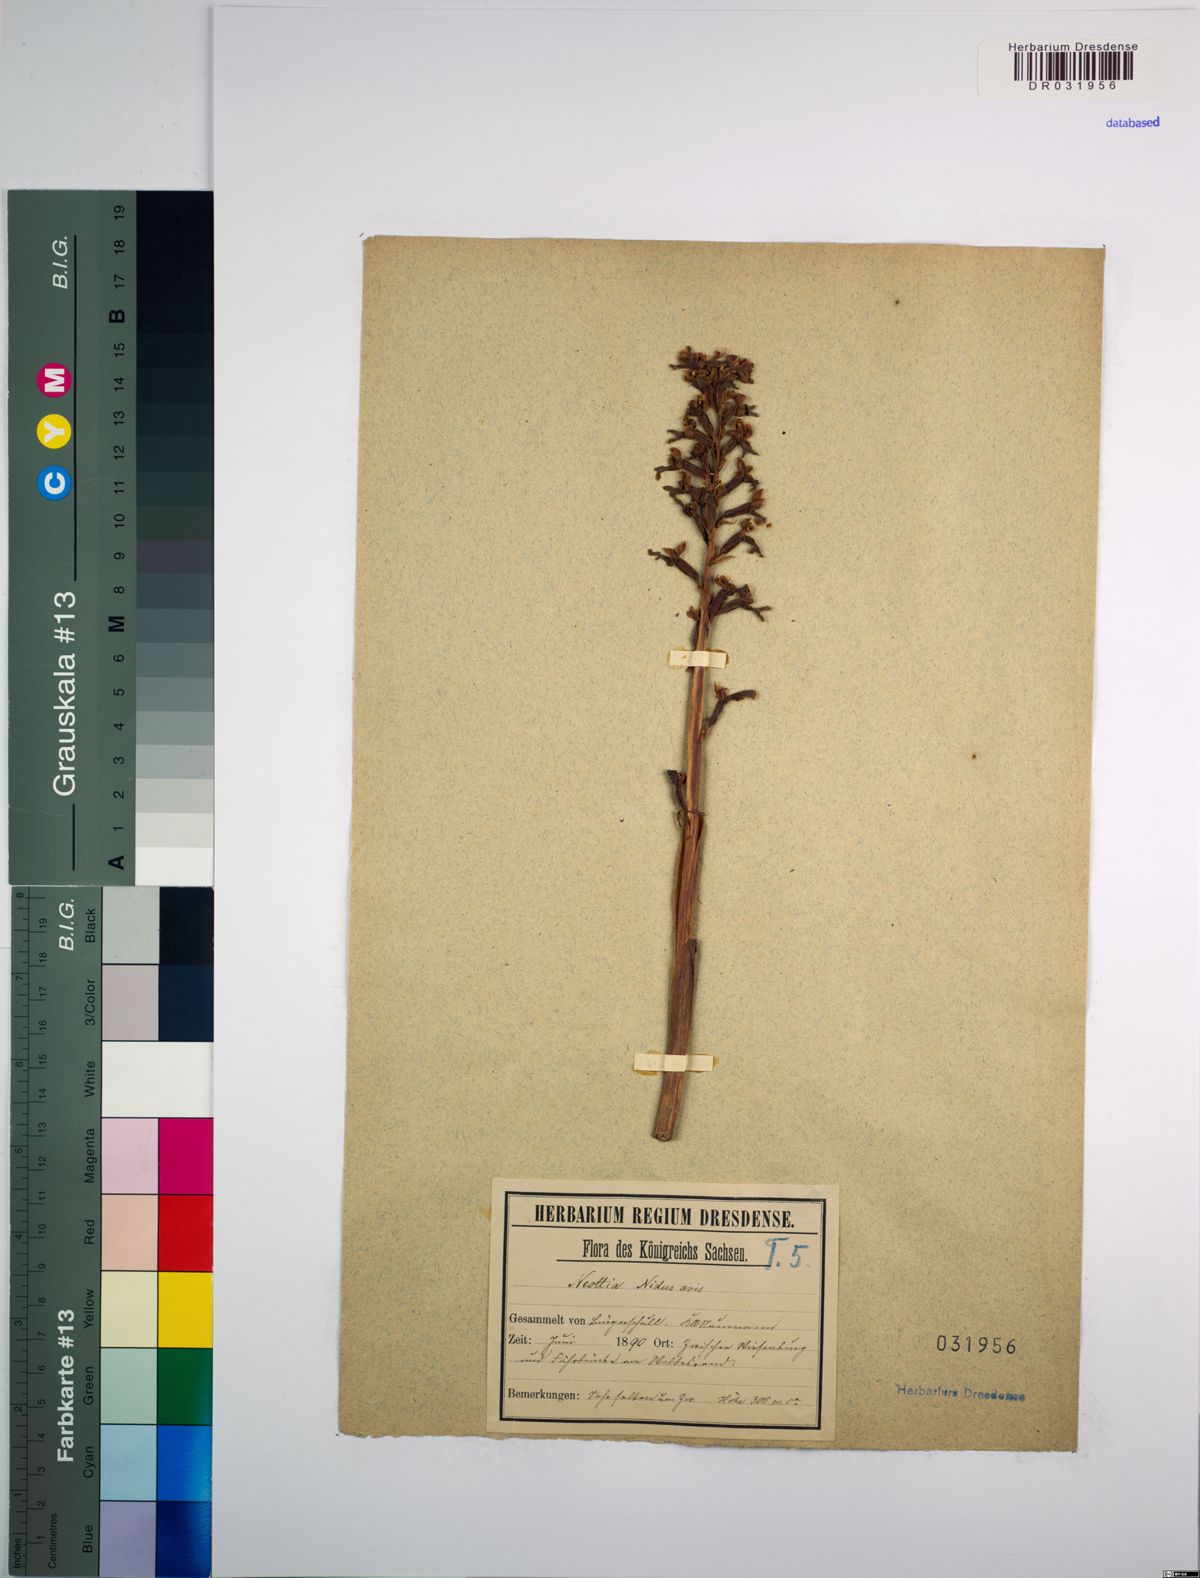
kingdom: Plantae
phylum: Tracheophyta
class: Liliopsida
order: Asparagales
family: Orchidaceae
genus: Neottia
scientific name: Neottia nidus-avis
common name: Bird's-nest orchid
